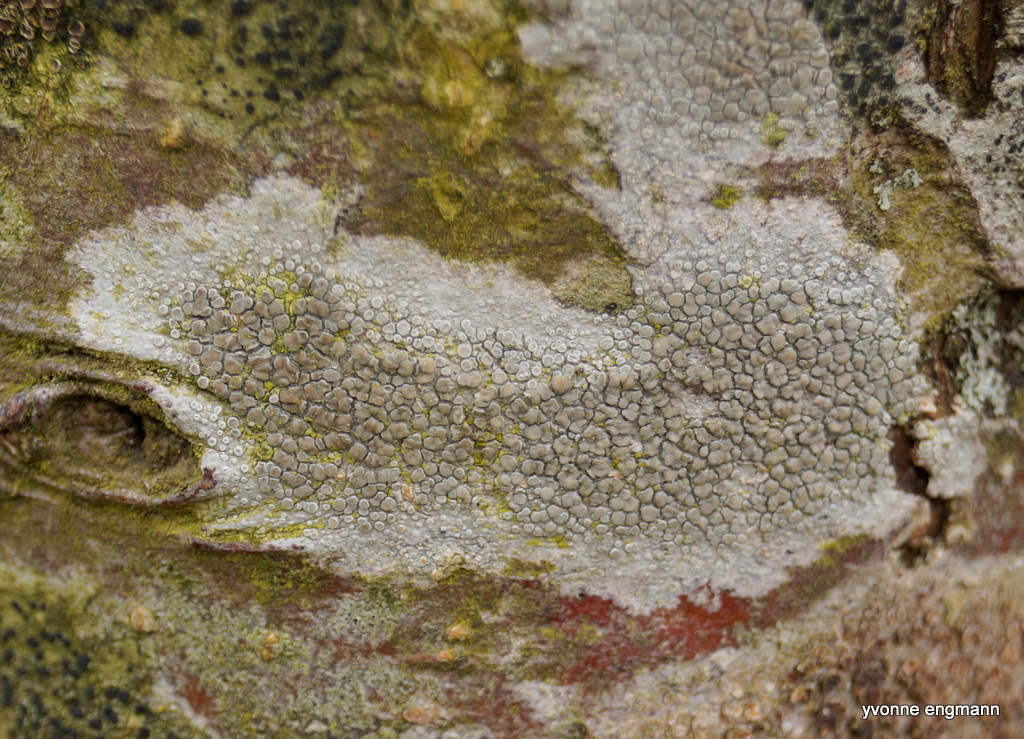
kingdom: Fungi
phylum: Ascomycota
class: Lecanoromycetes
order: Lecanorales
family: Lecanoraceae
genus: Glaucomaria
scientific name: Glaucomaria carpinea
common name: hviddugget kantskivelav
